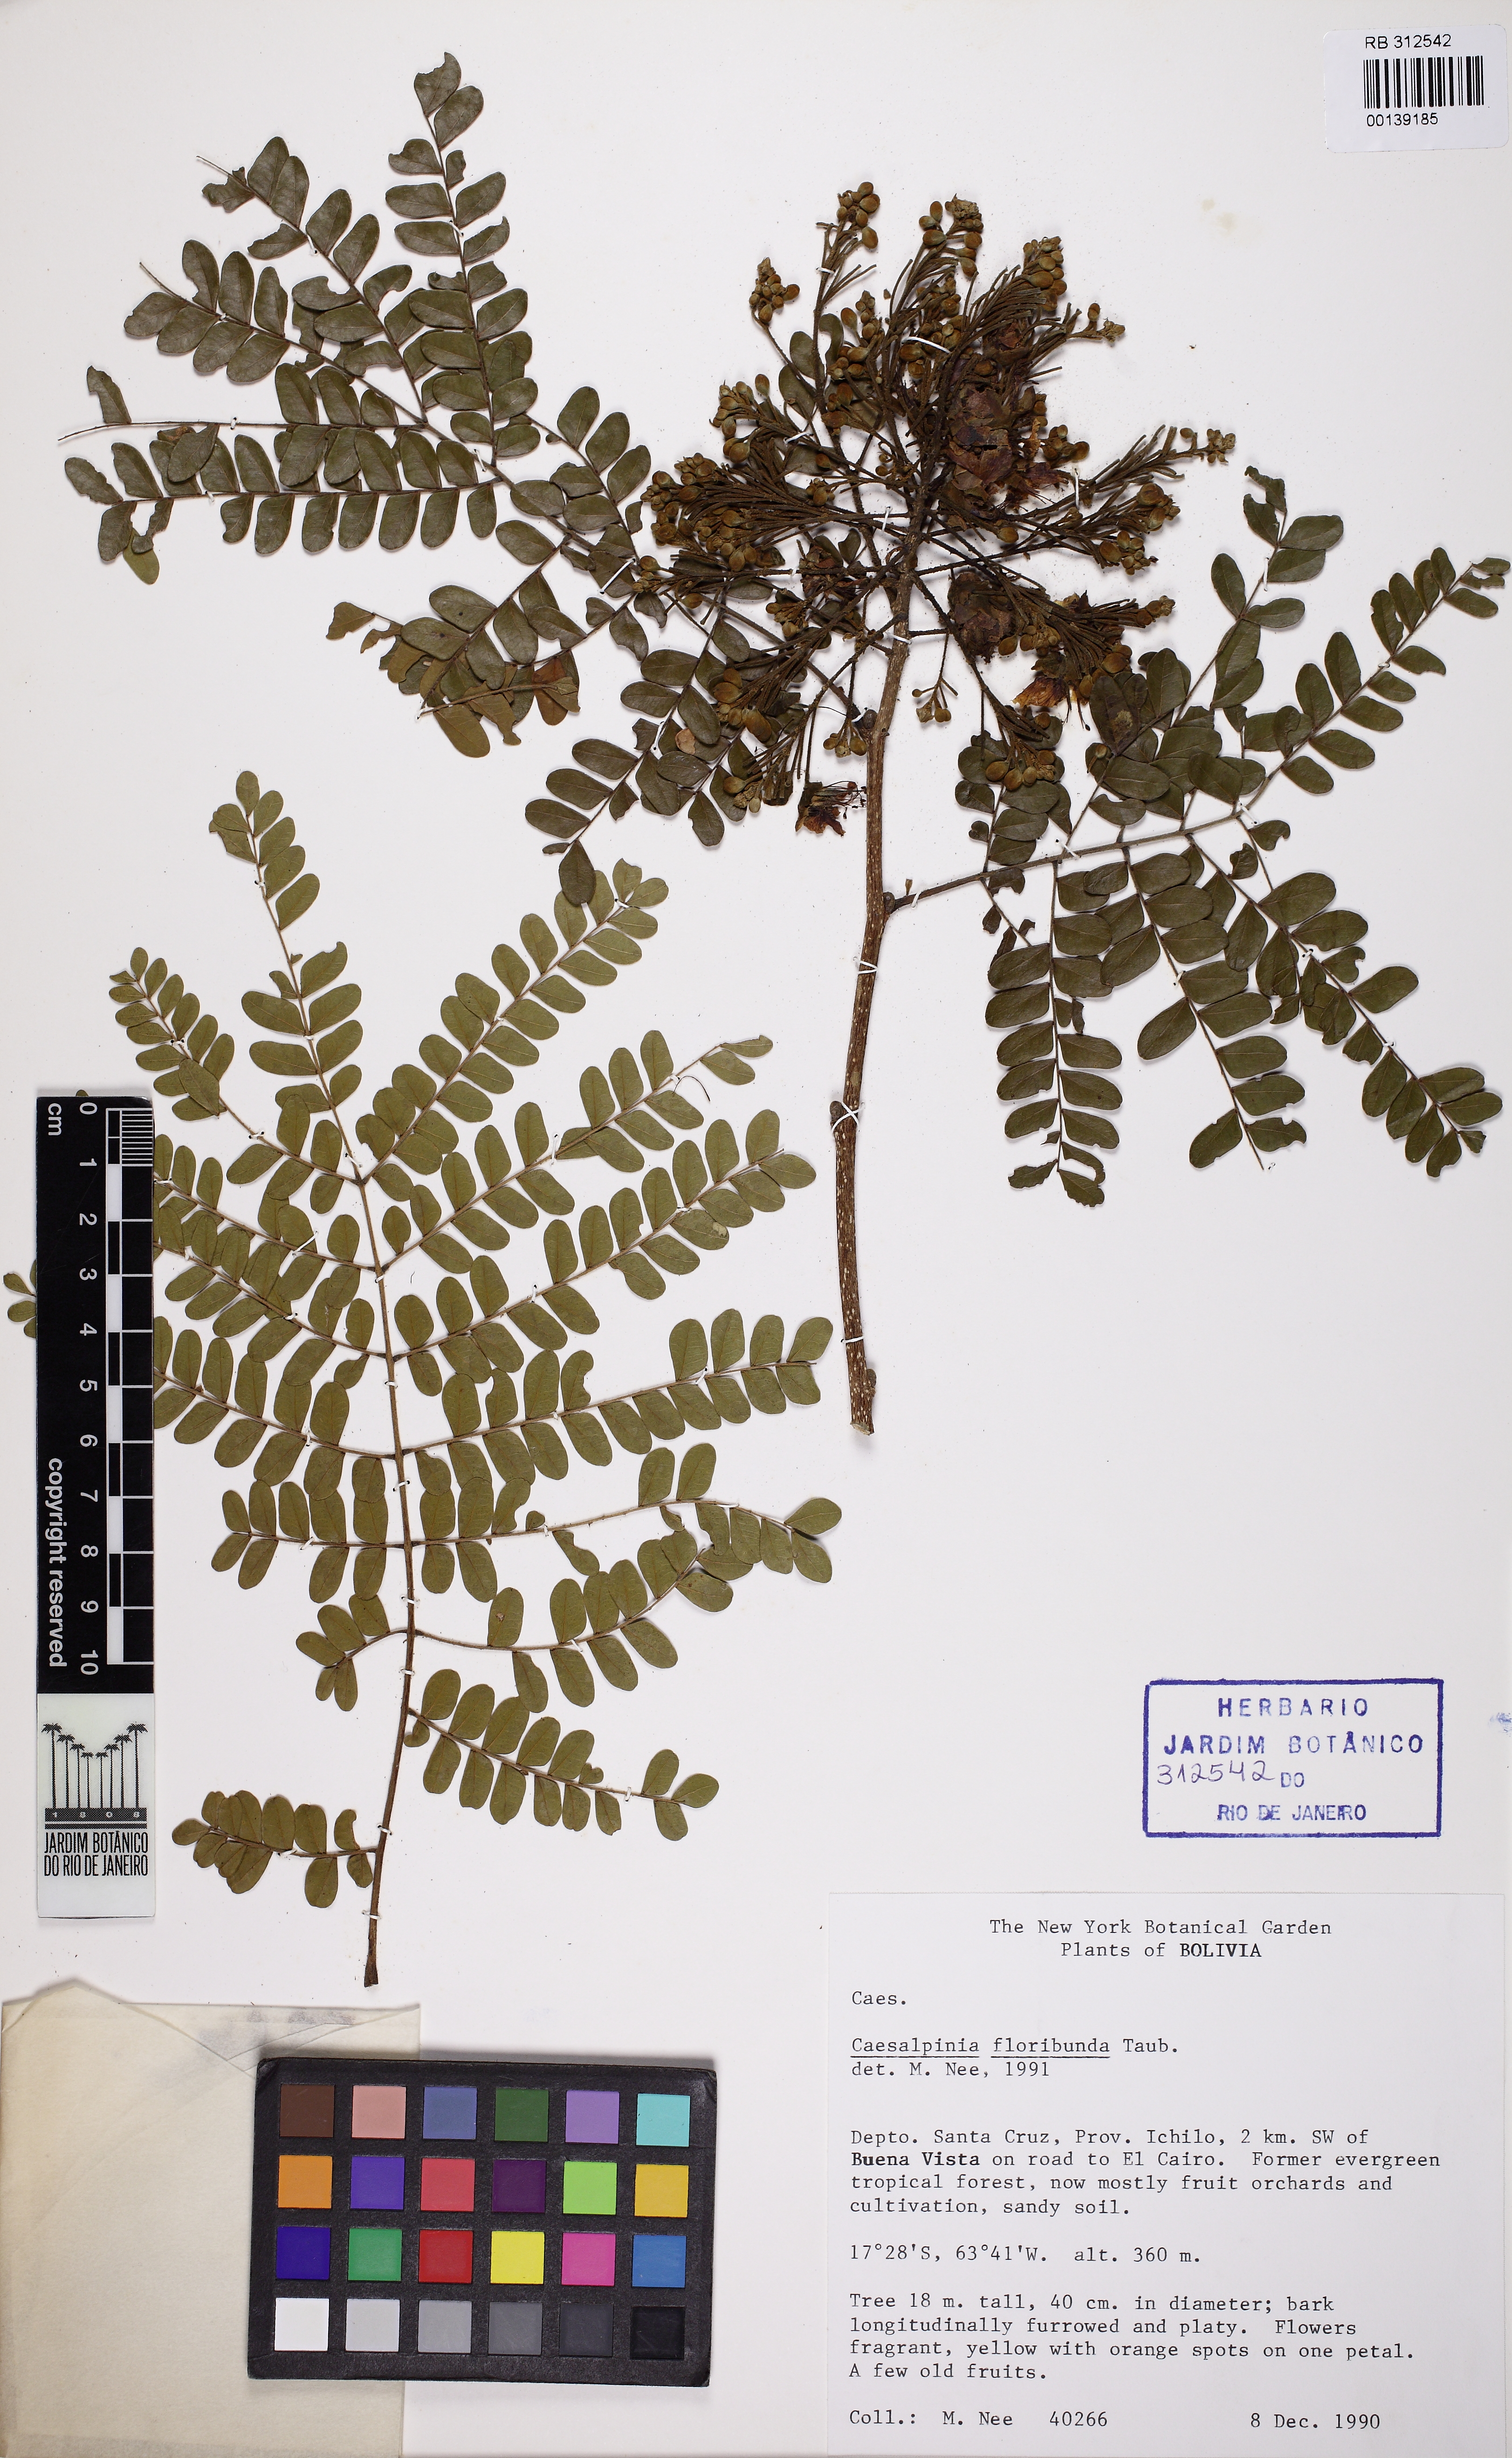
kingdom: Plantae
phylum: Tracheophyta
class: Magnoliopsida
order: Fabales
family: Fabaceae
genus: Cenostigma
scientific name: Cenostigma pluviosum
